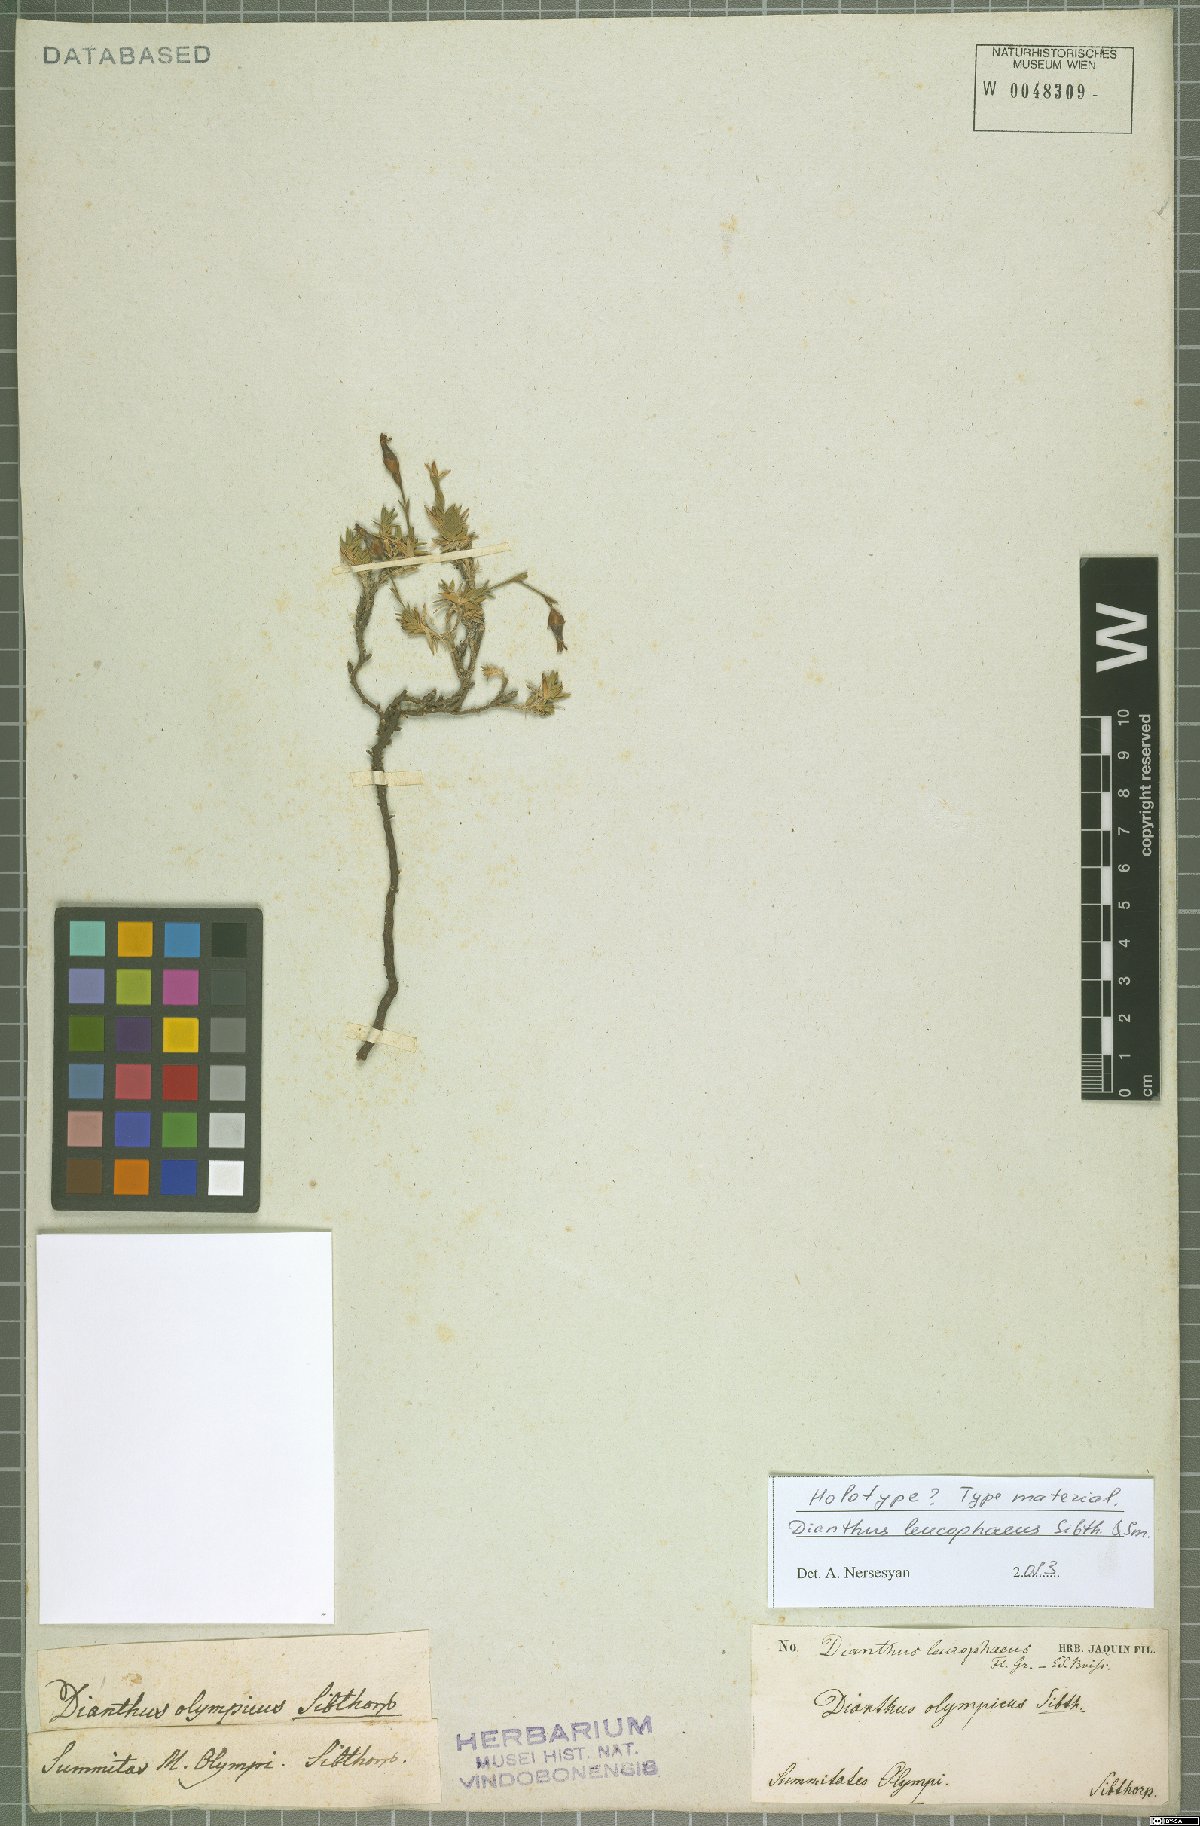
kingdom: Plantae
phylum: Tracheophyta
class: Magnoliopsida
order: Caryophyllales
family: Caryophyllaceae
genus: Dianthus
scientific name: Dianthus leucophaeus
